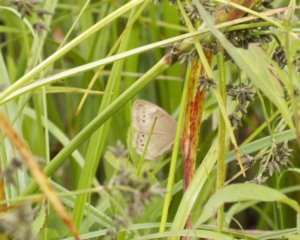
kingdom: Animalia
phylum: Arthropoda
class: Insecta
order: Lepidoptera
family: Nymphalidae
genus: Lethe
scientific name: Lethe eurydice
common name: Eyed Brown
